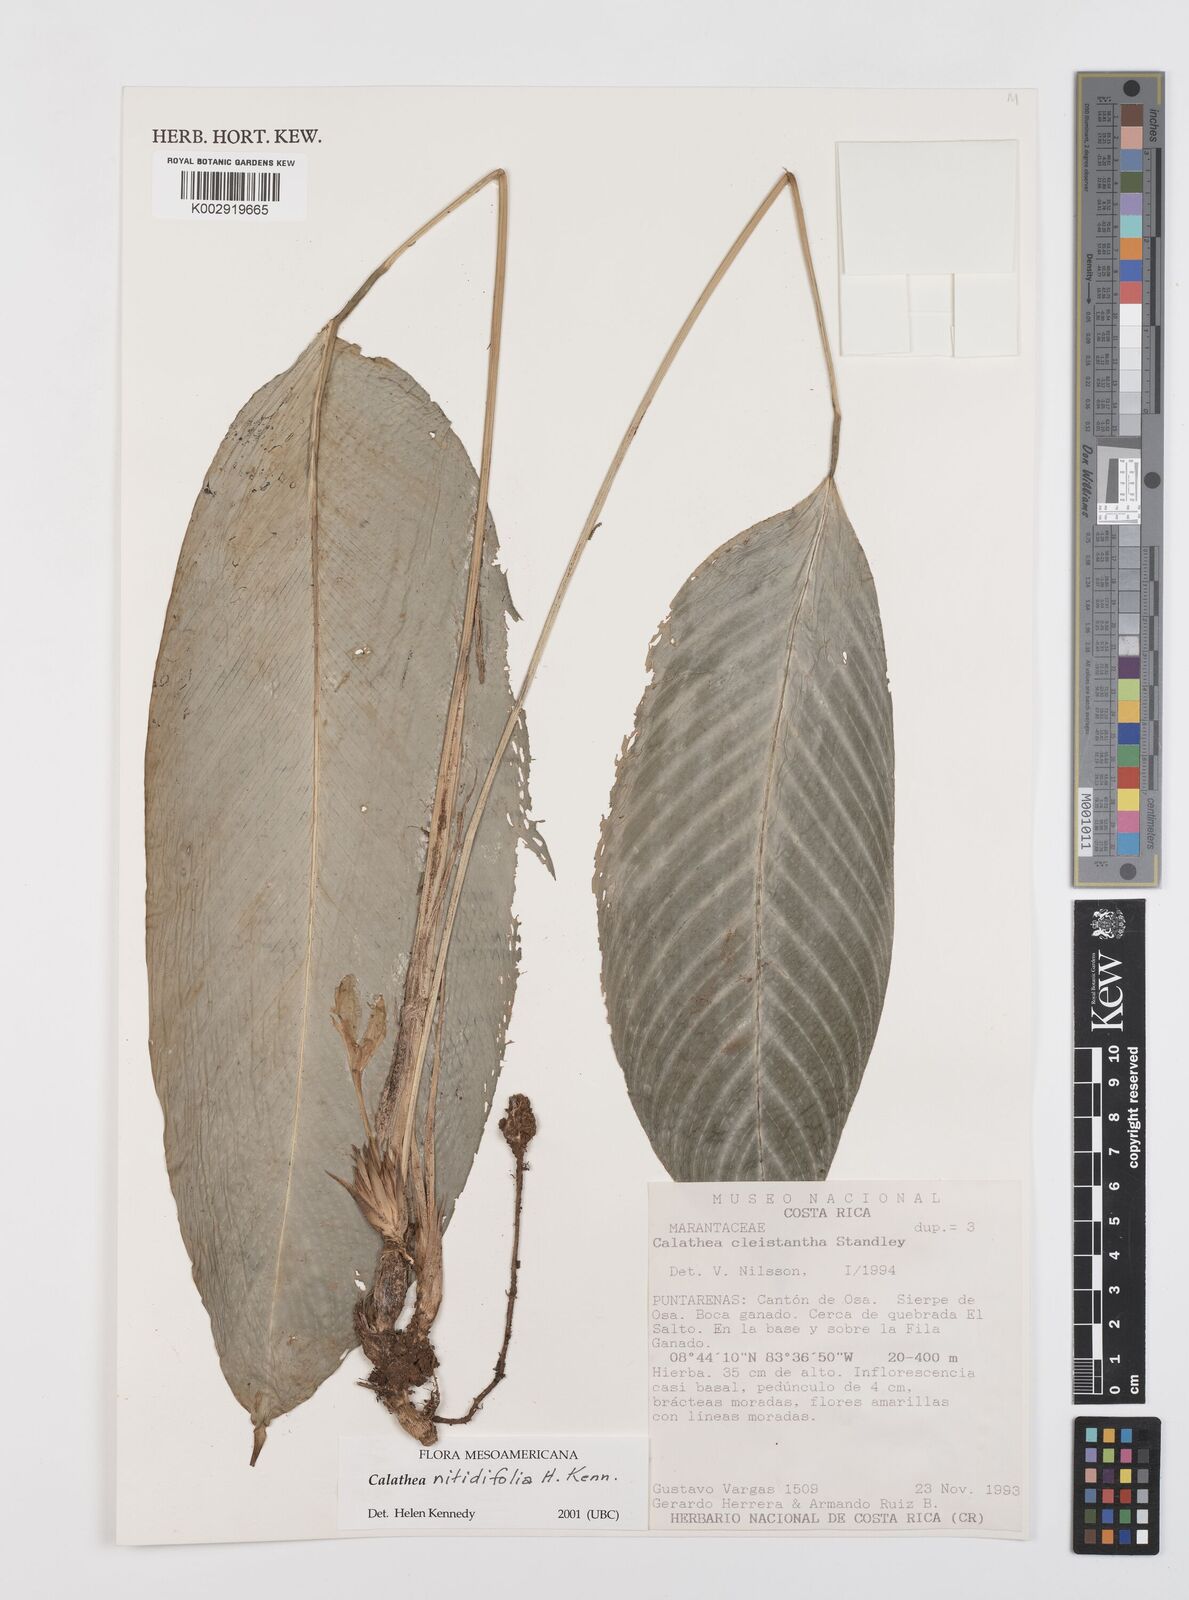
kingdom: Plantae
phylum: Tracheophyta
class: Liliopsida
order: Zingiberales
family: Marantaceae
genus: Goeppertia
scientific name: Goeppertia nitidifolia
